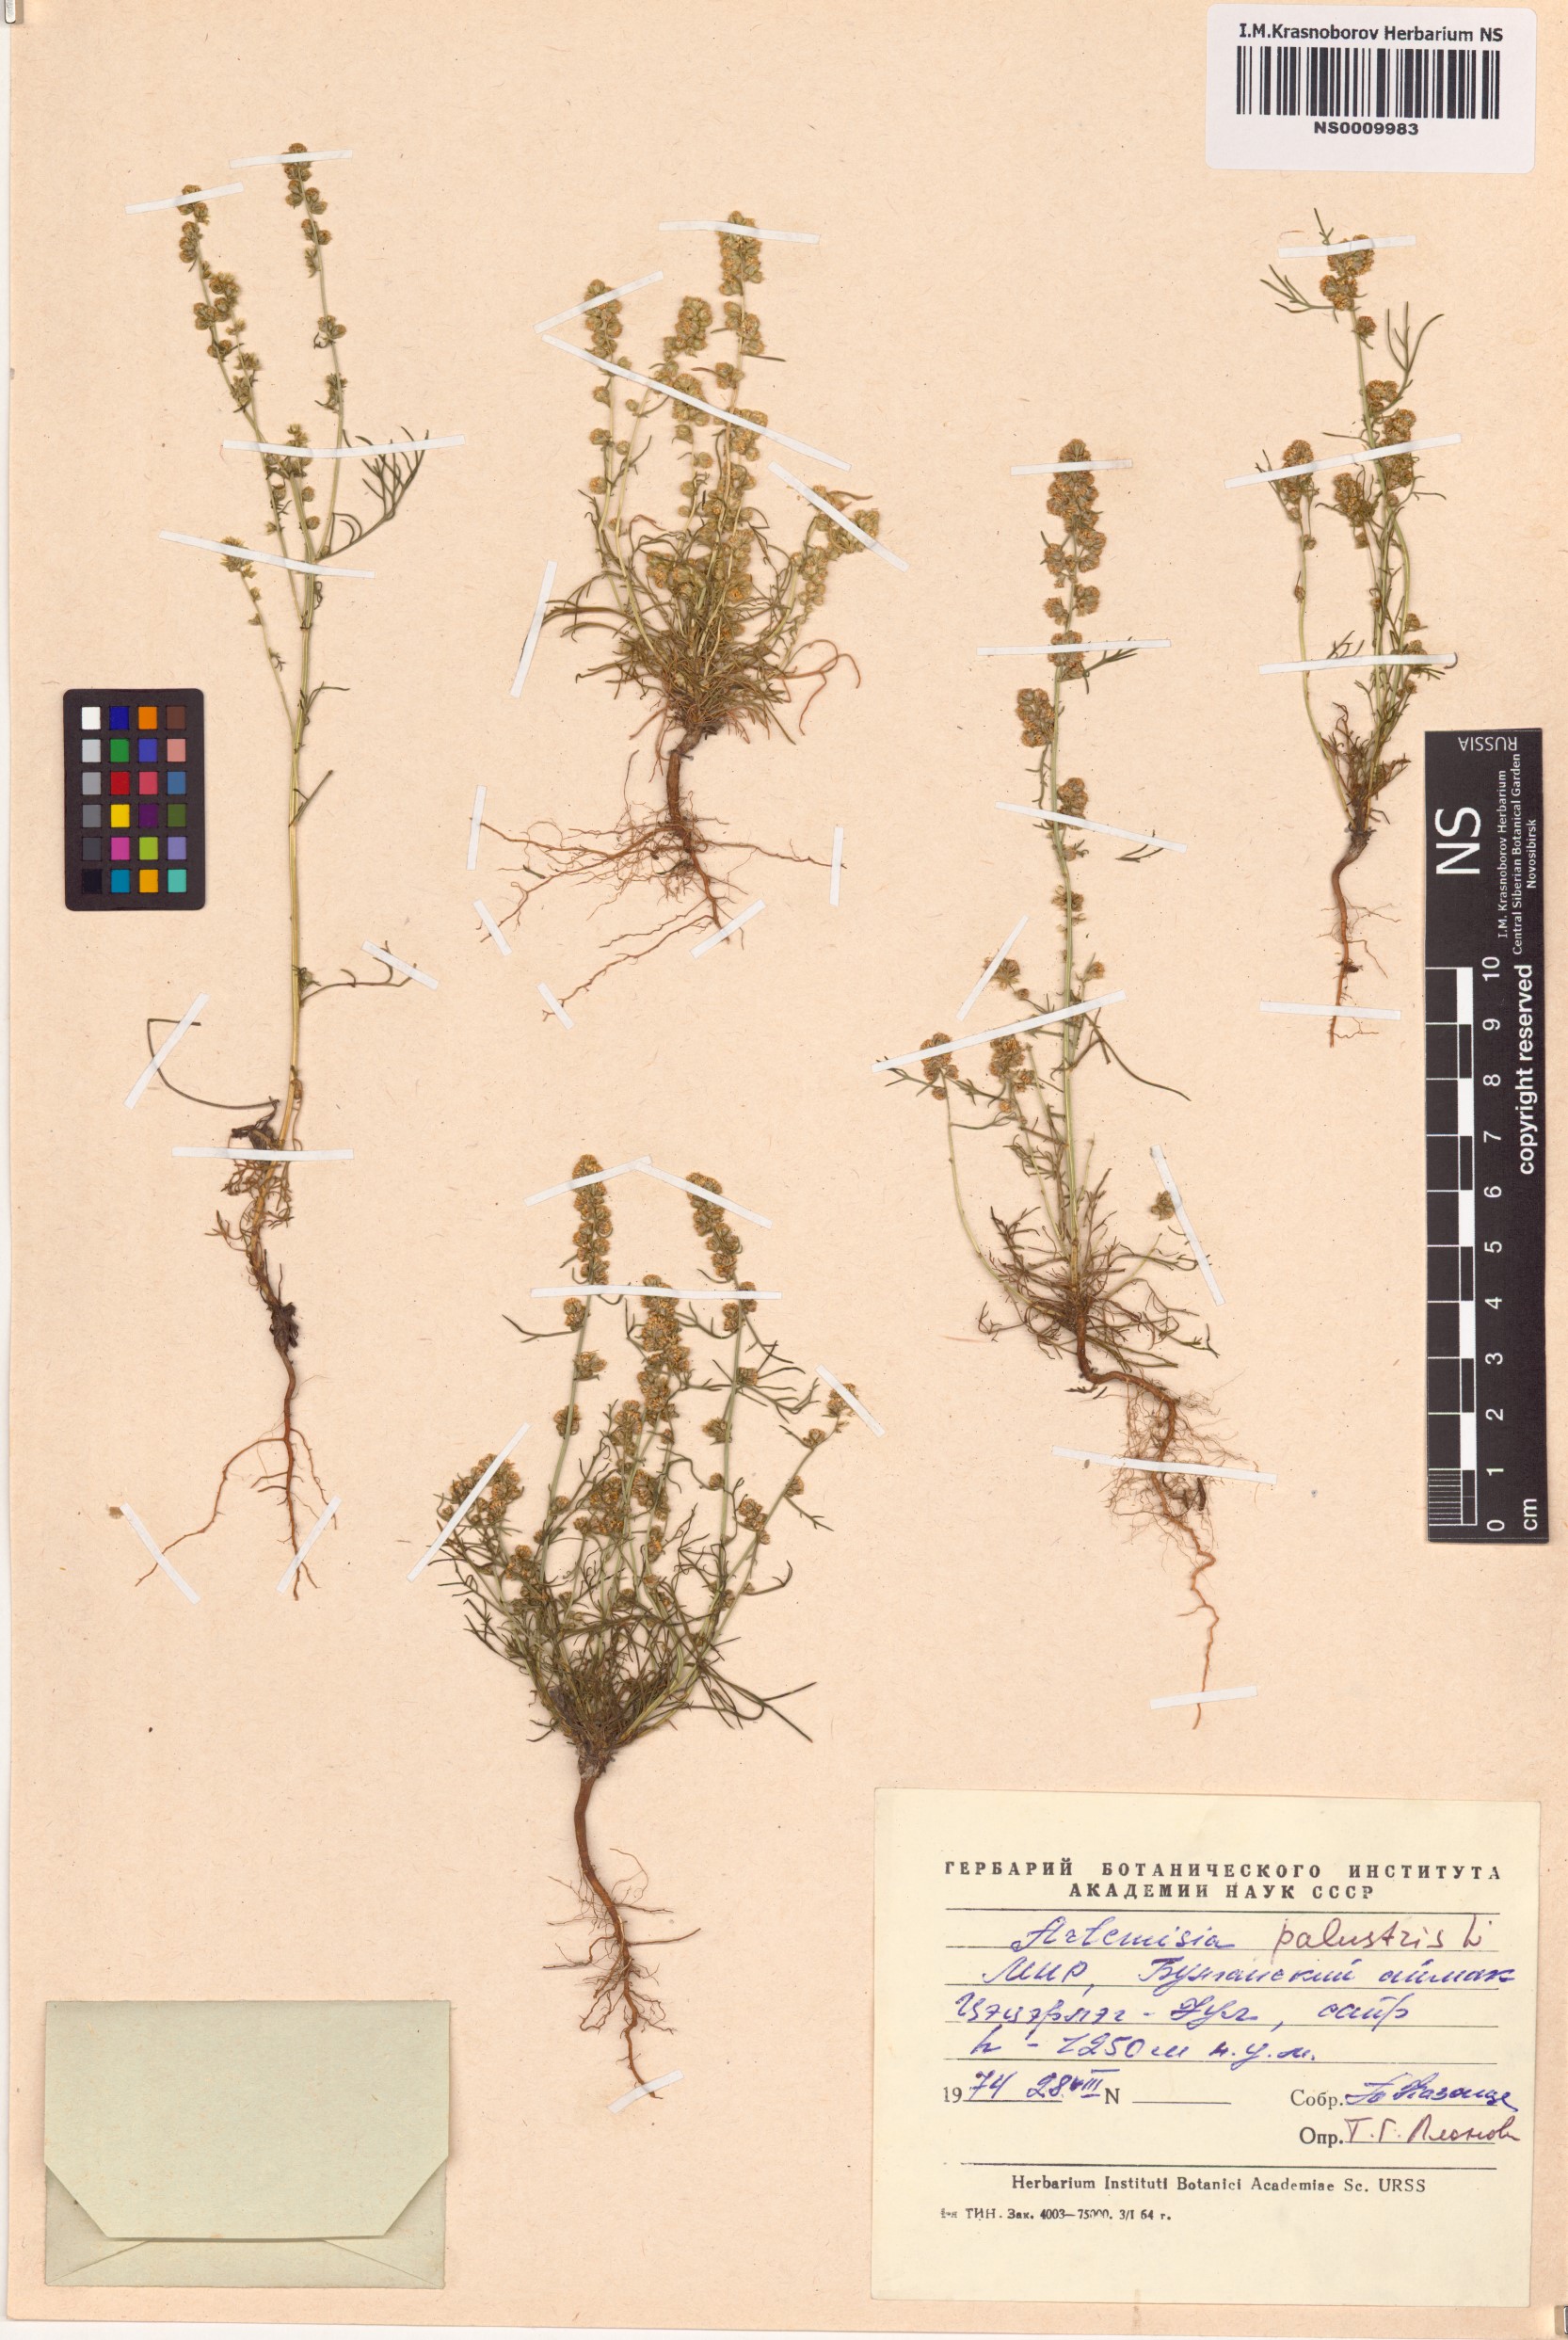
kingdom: Plantae
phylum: Tracheophyta
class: Magnoliopsida
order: Asterales
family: Asteraceae
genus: Artemisia
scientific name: Artemisia palustris
